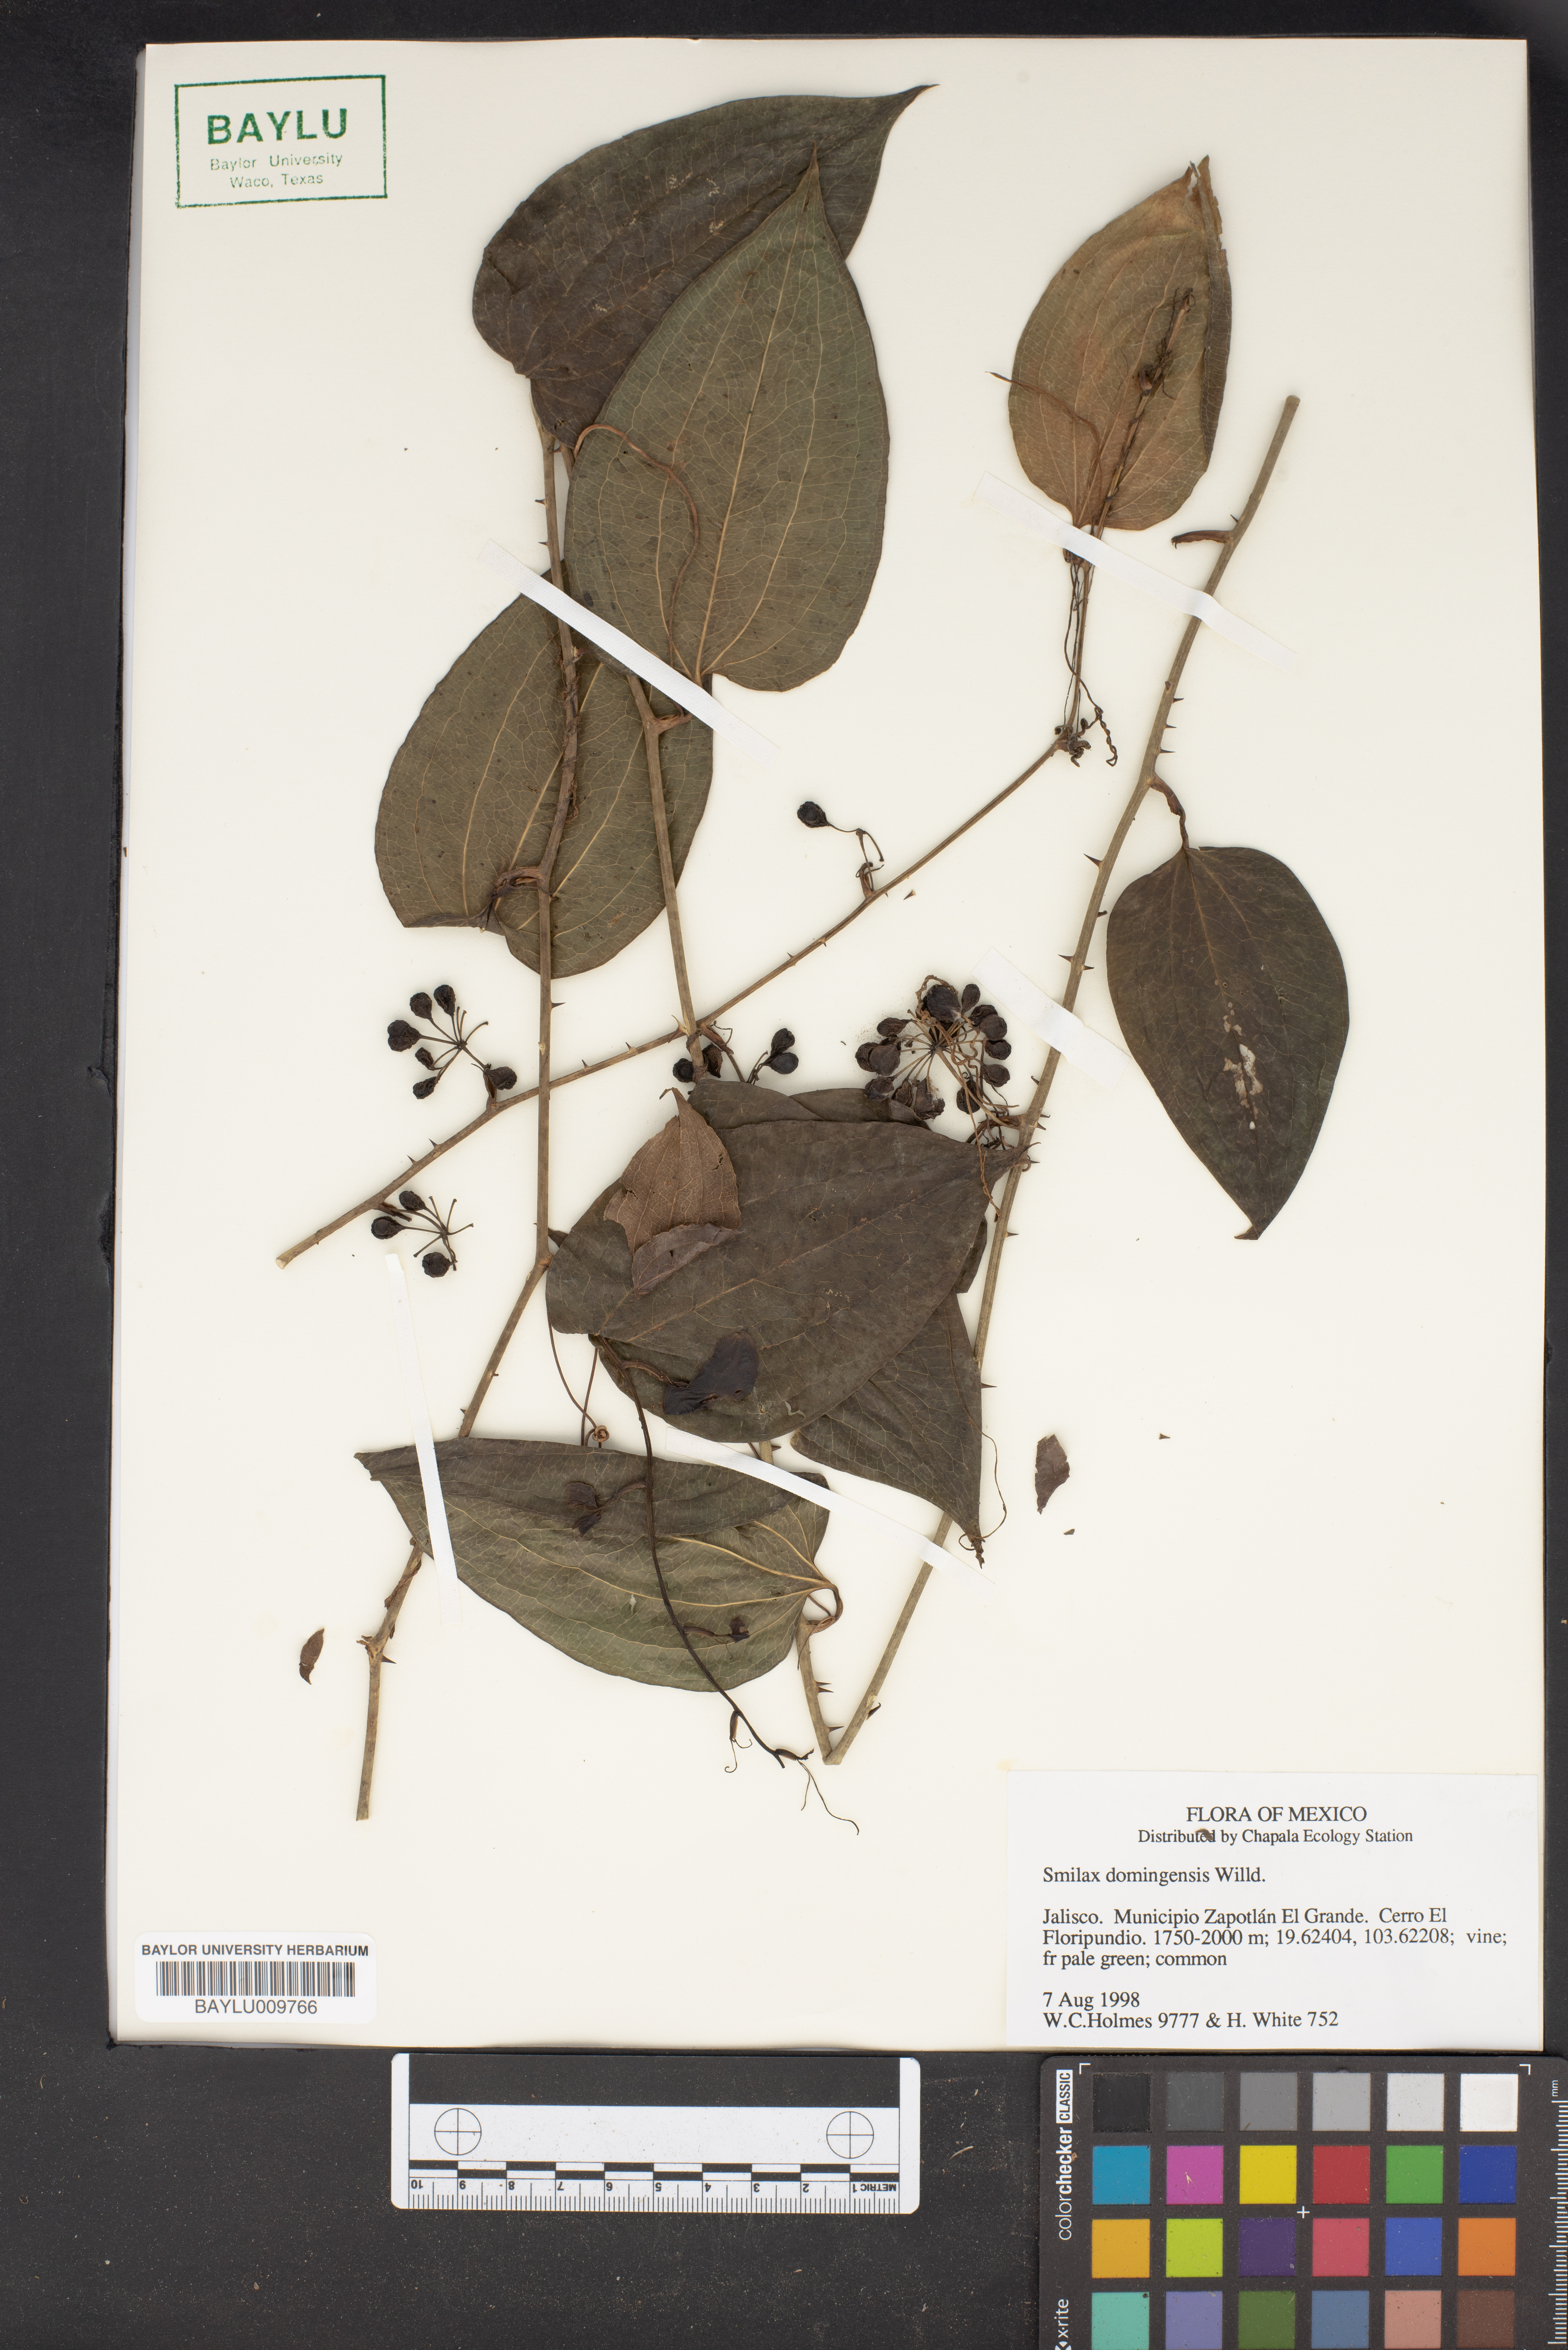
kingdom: Plantae
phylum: Tracheophyta
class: Liliopsida
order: Liliales
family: Smilacaceae
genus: Smilax
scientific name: Smilax domingensis
